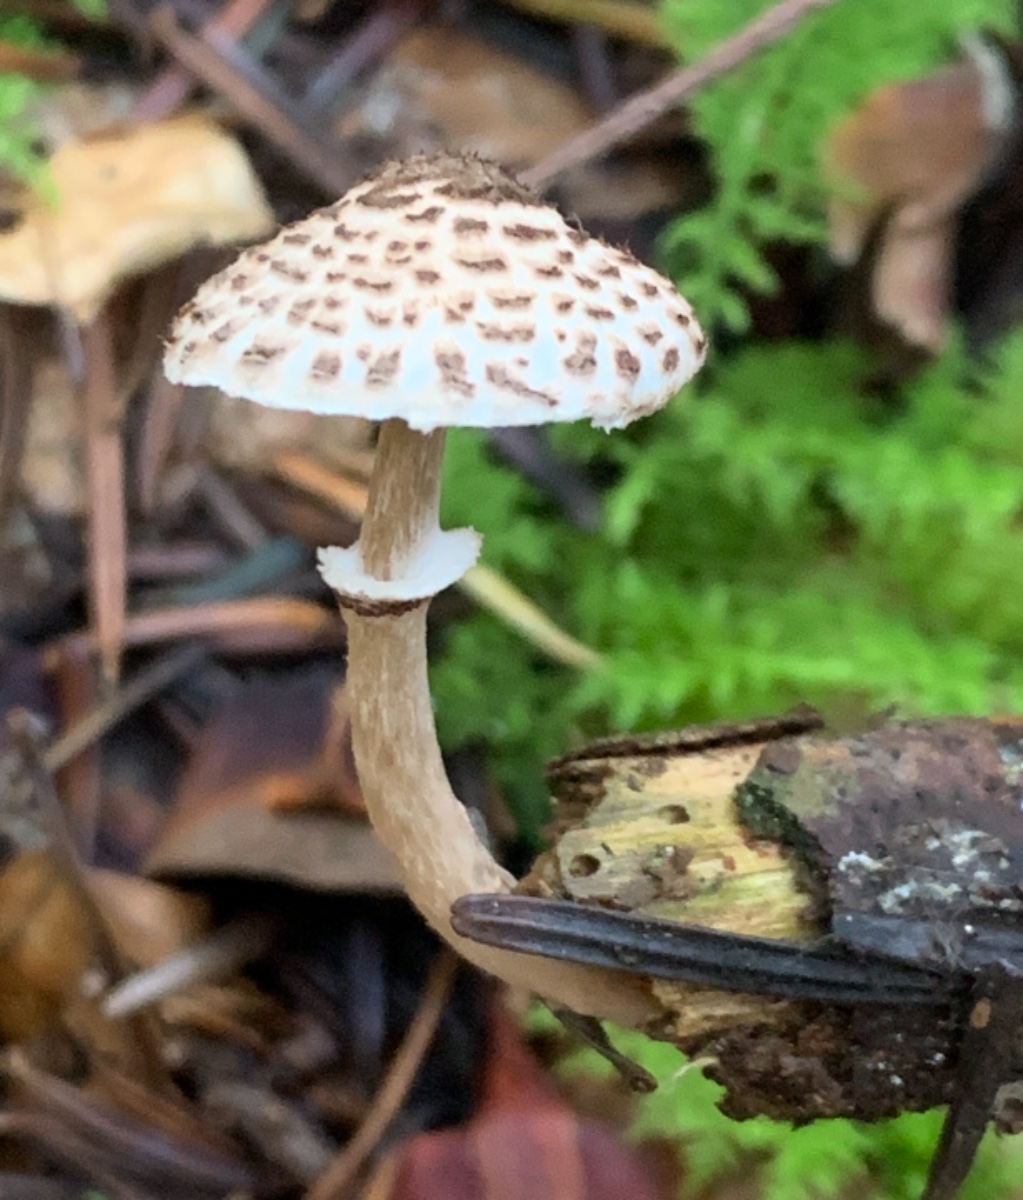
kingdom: Fungi
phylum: Basidiomycota
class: Agaricomycetes
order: Agaricales
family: Agaricaceae
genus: Lepiota
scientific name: Lepiota felina
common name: sortskællet parasolhat
